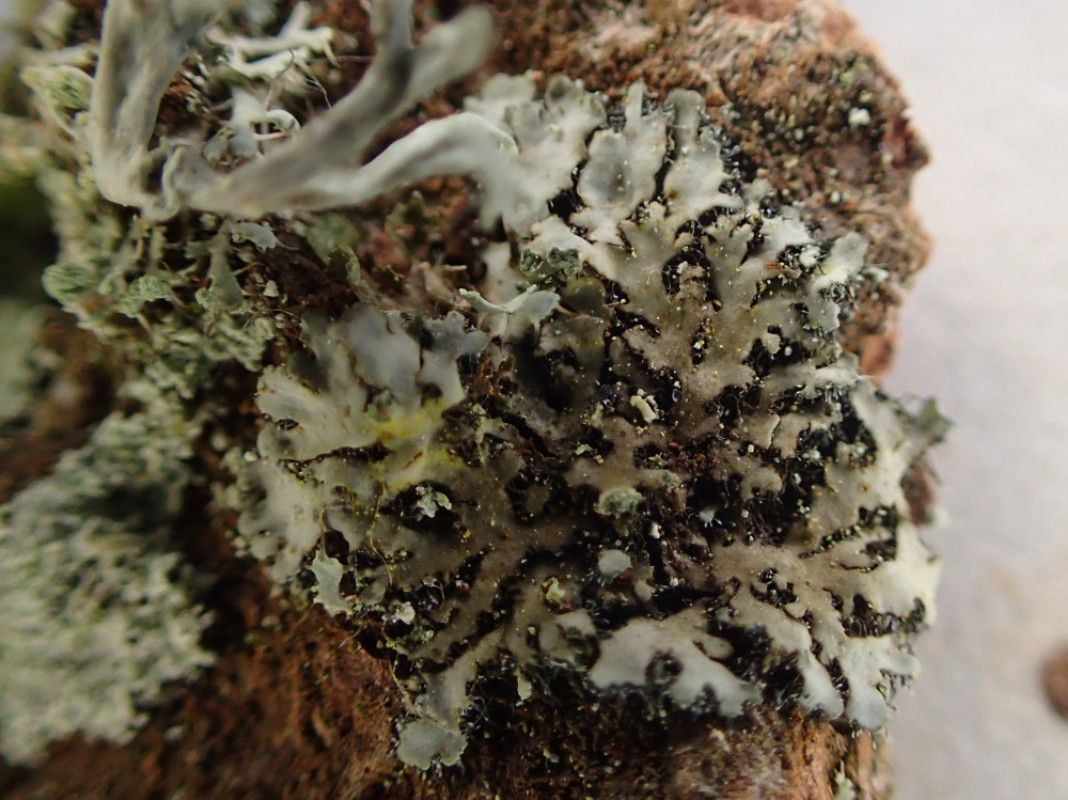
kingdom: Fungi
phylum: Ascomycota
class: Lecanoromycetes
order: Caliciales
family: Physciaceae
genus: Phaeophyscia
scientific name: Phaeophyscia orbicularis
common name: grågrøn rosetlav
